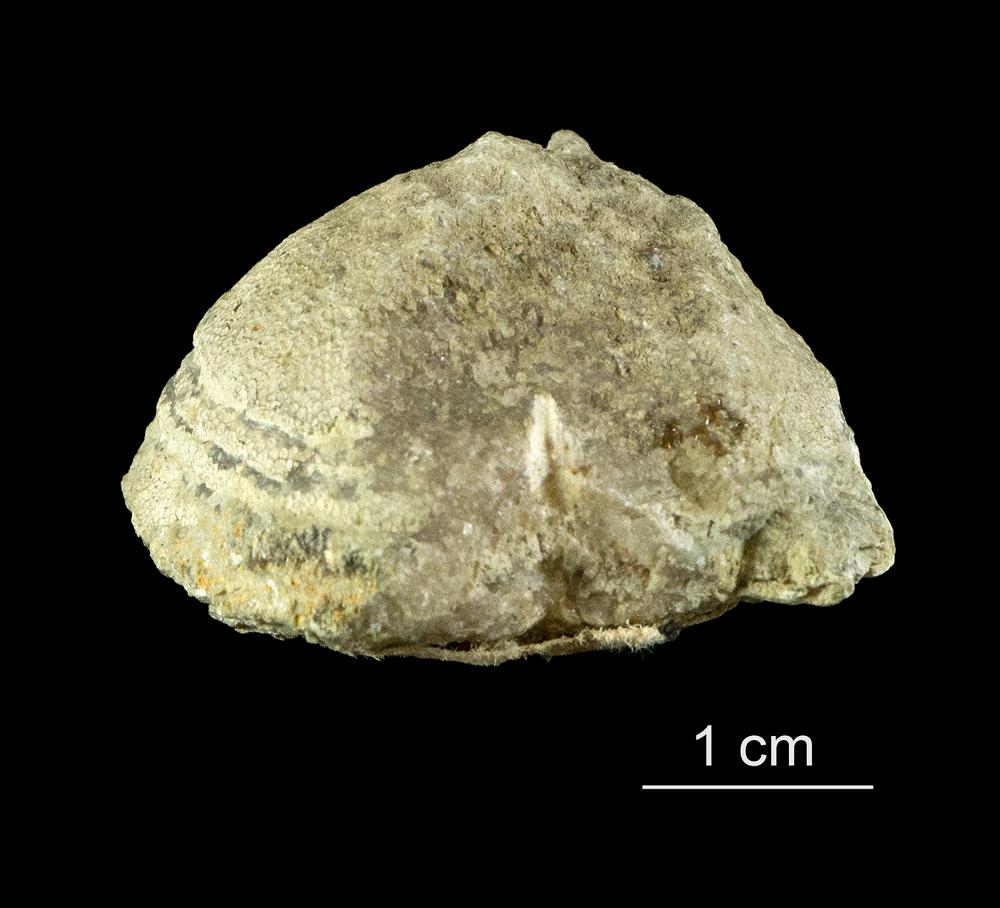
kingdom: Animalia
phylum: Bryozoa
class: Stenolaemata
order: Trepostomatida
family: Dianulitidae
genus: Dianulites
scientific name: Dianulites petropolitanus
